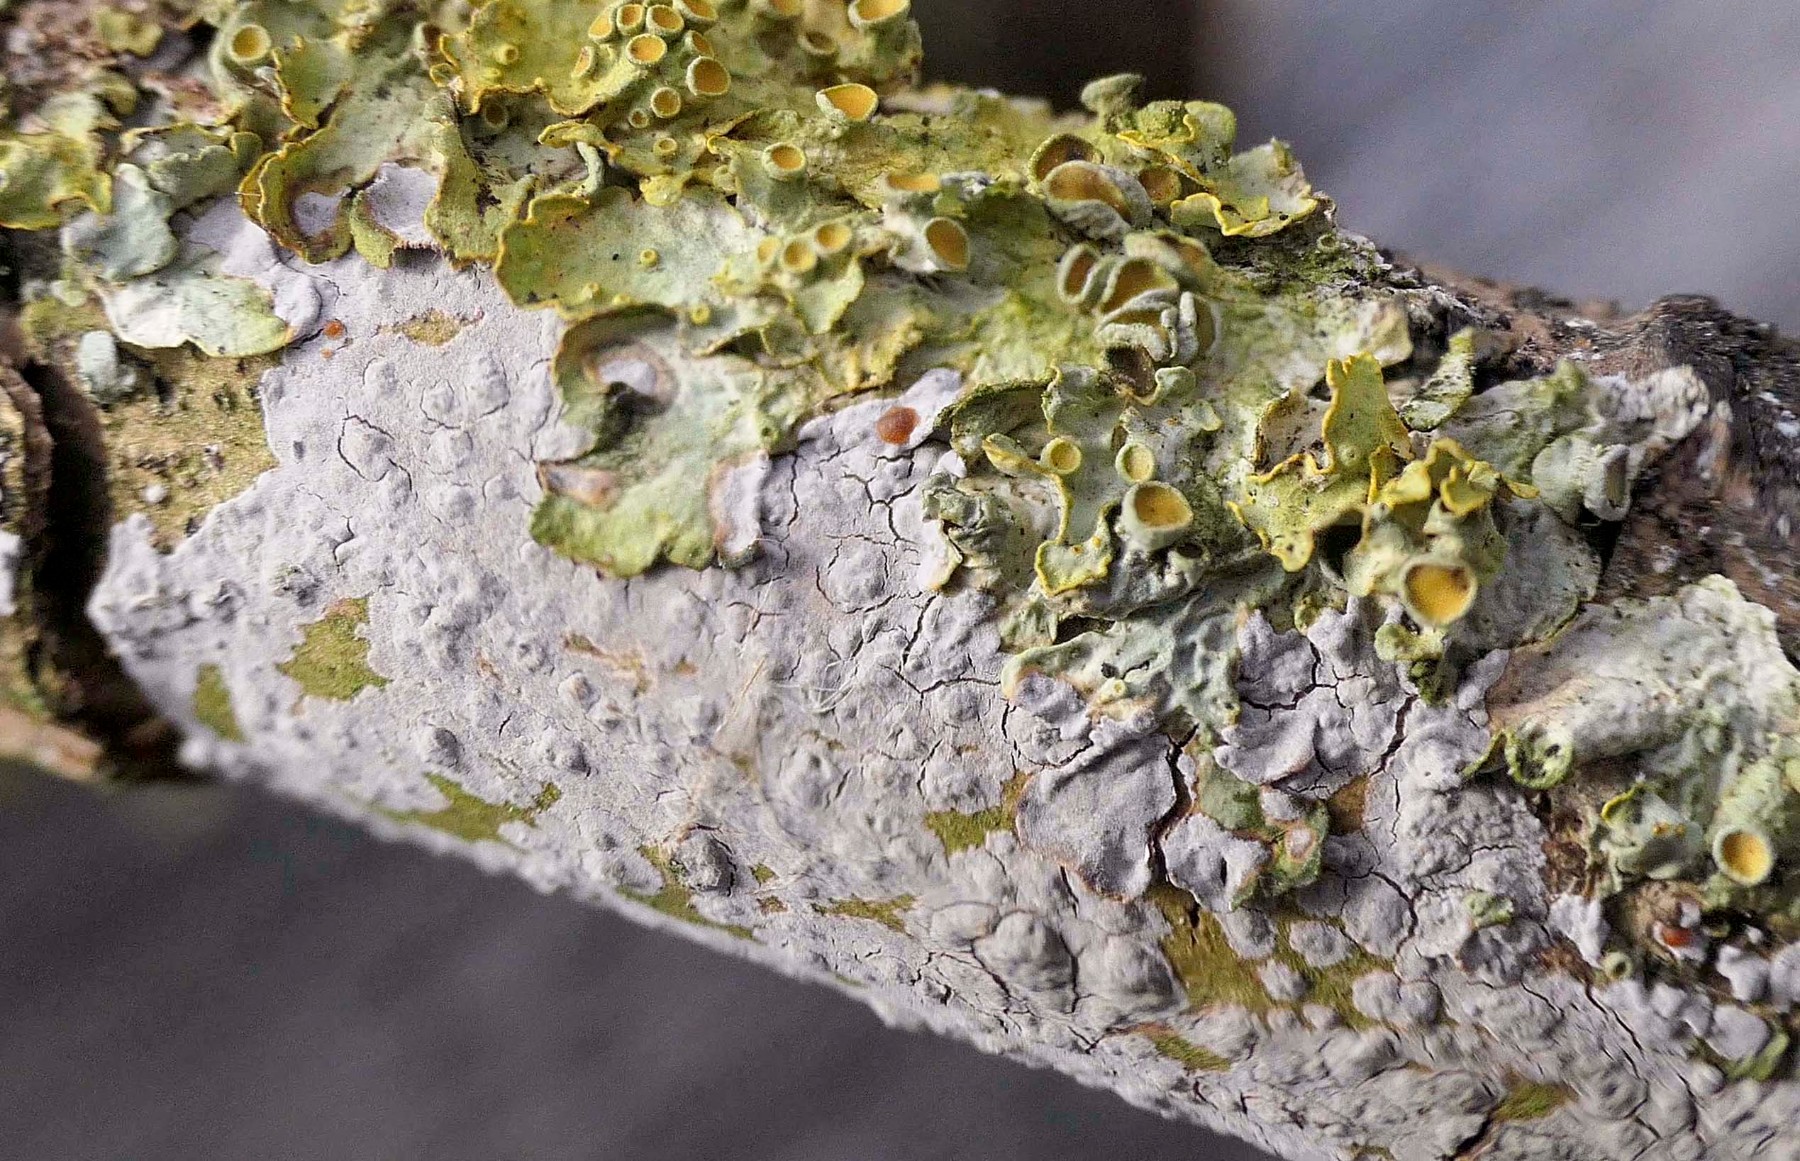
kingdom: Fungi
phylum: Basidiomycota
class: Tremellomycetes
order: Tremellales
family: Tremellaceae
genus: Tremella
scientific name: Tremella versicolor
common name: voksskind-bævresvamp
